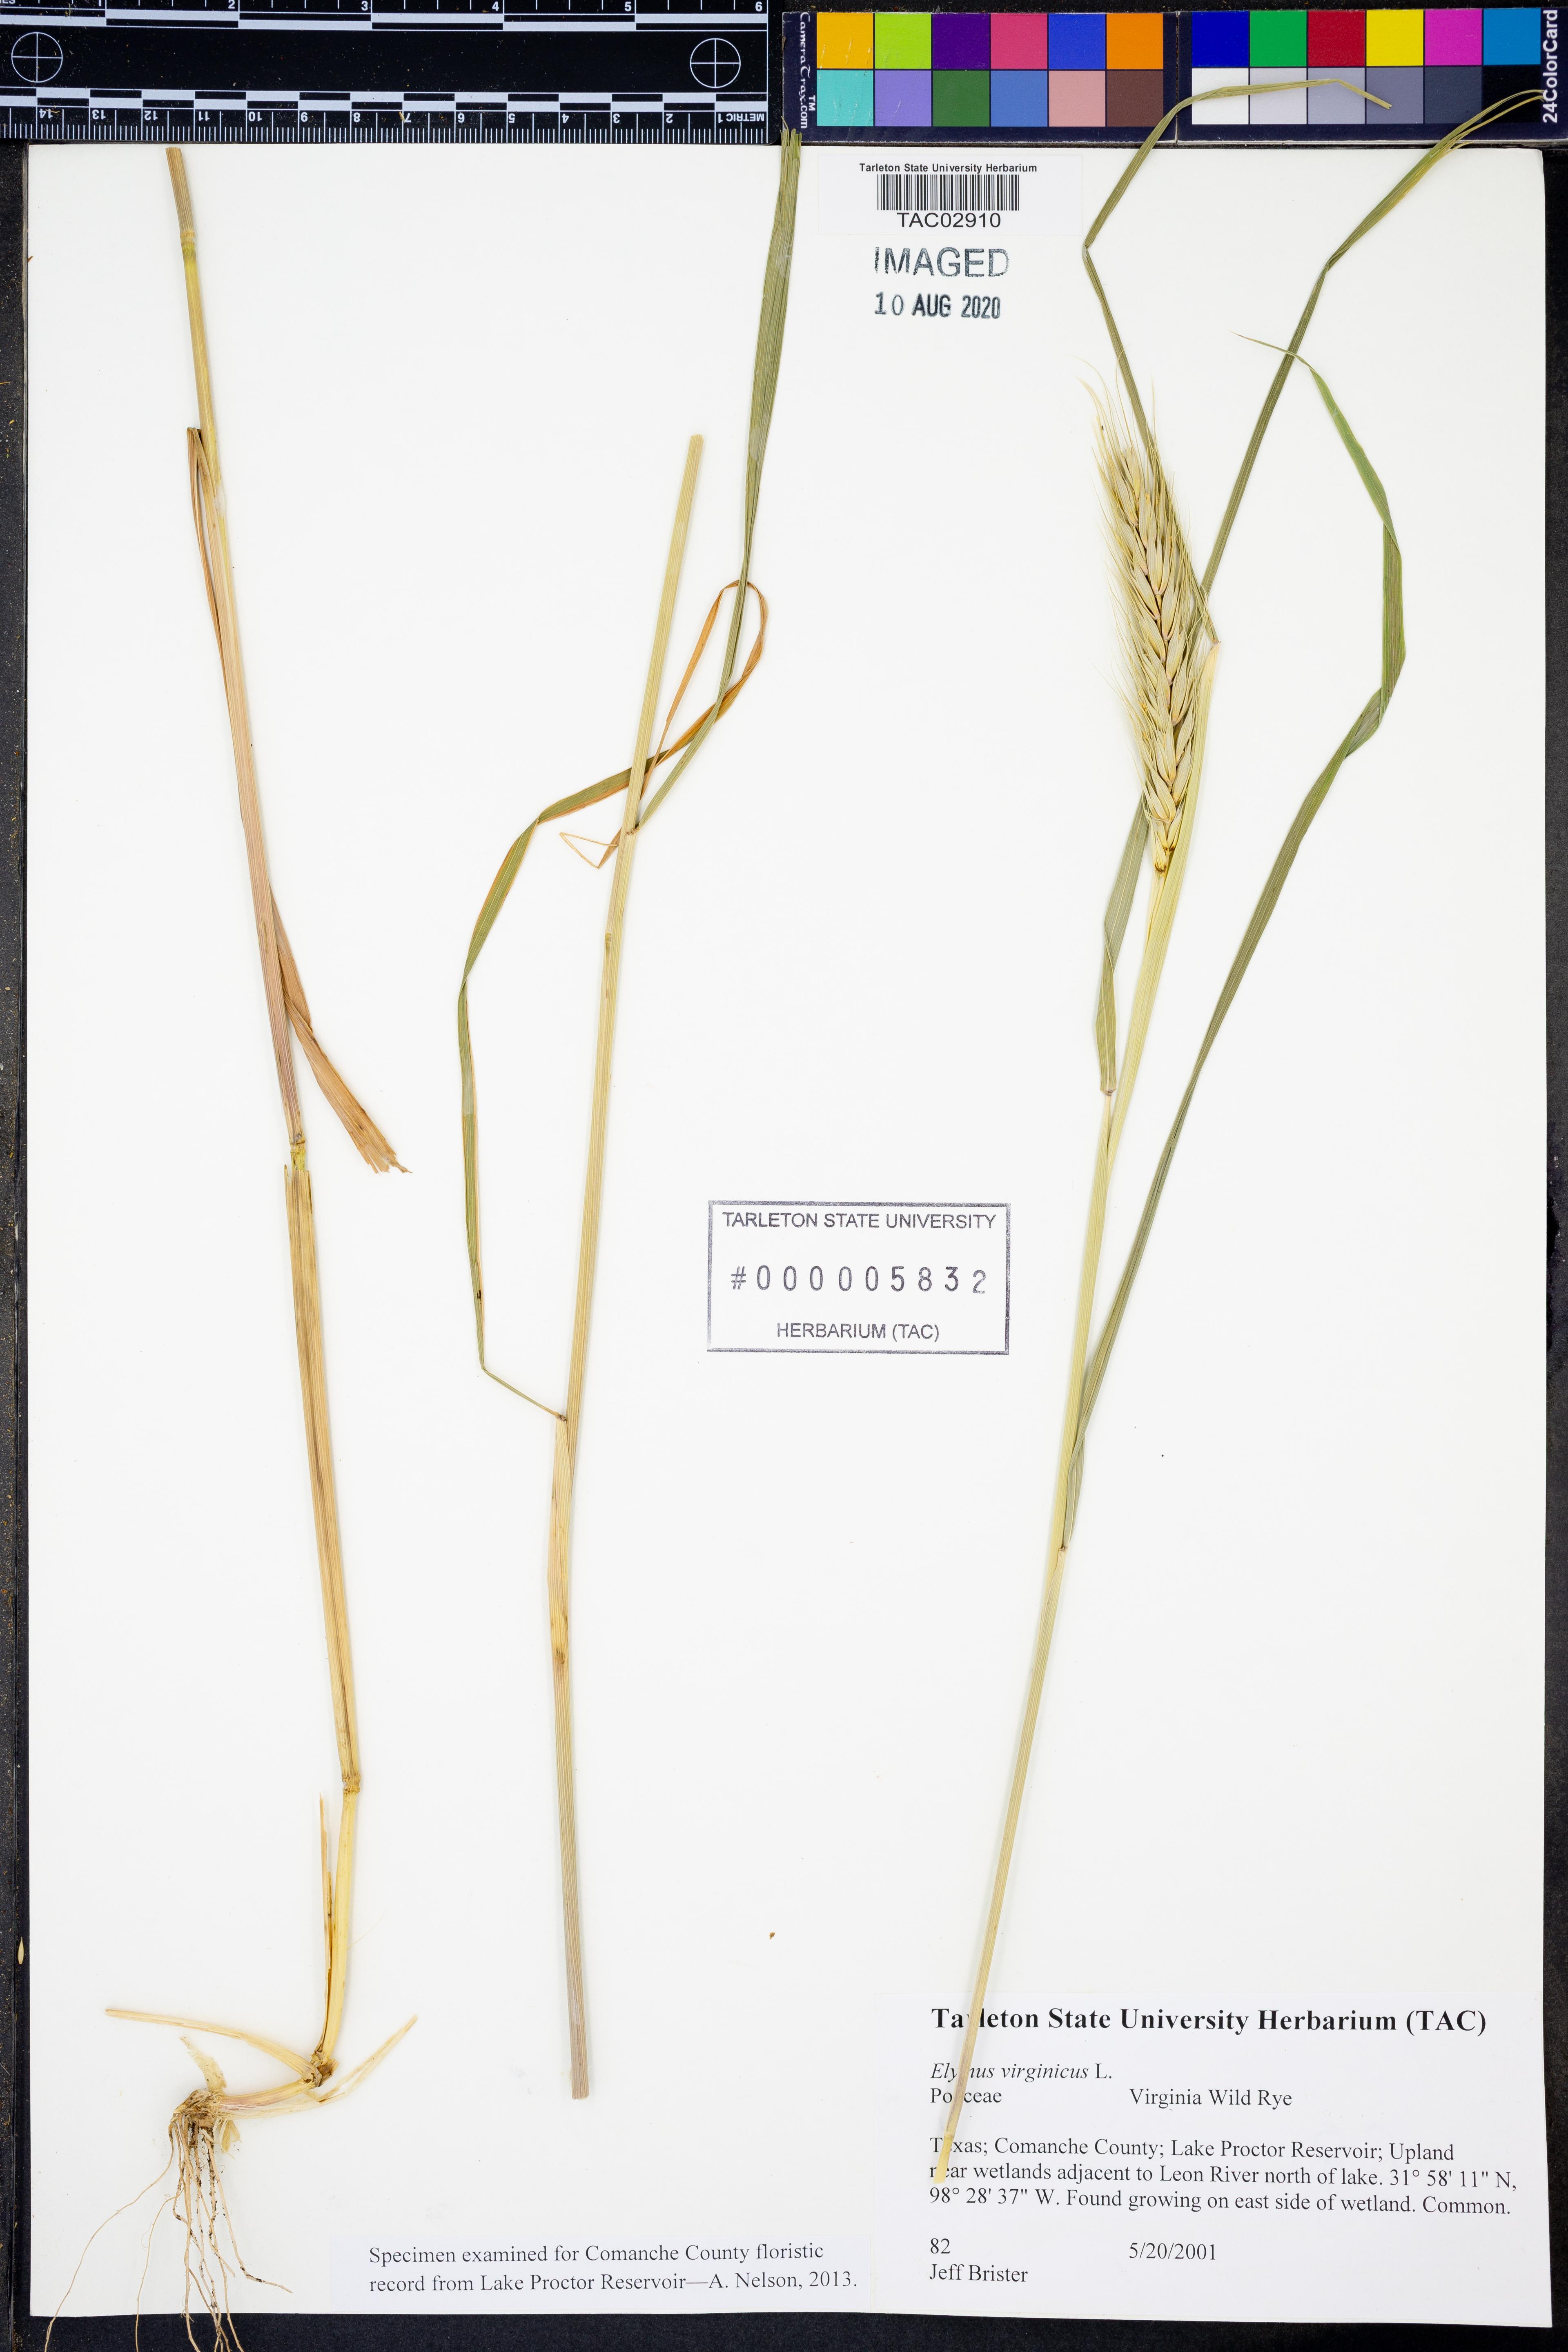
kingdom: Plantae
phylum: Tracheophyta
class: Liliopsida
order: Poales
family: Poaceae
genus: Elymus
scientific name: Elymus virginicus
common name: Common eastern wildrye
